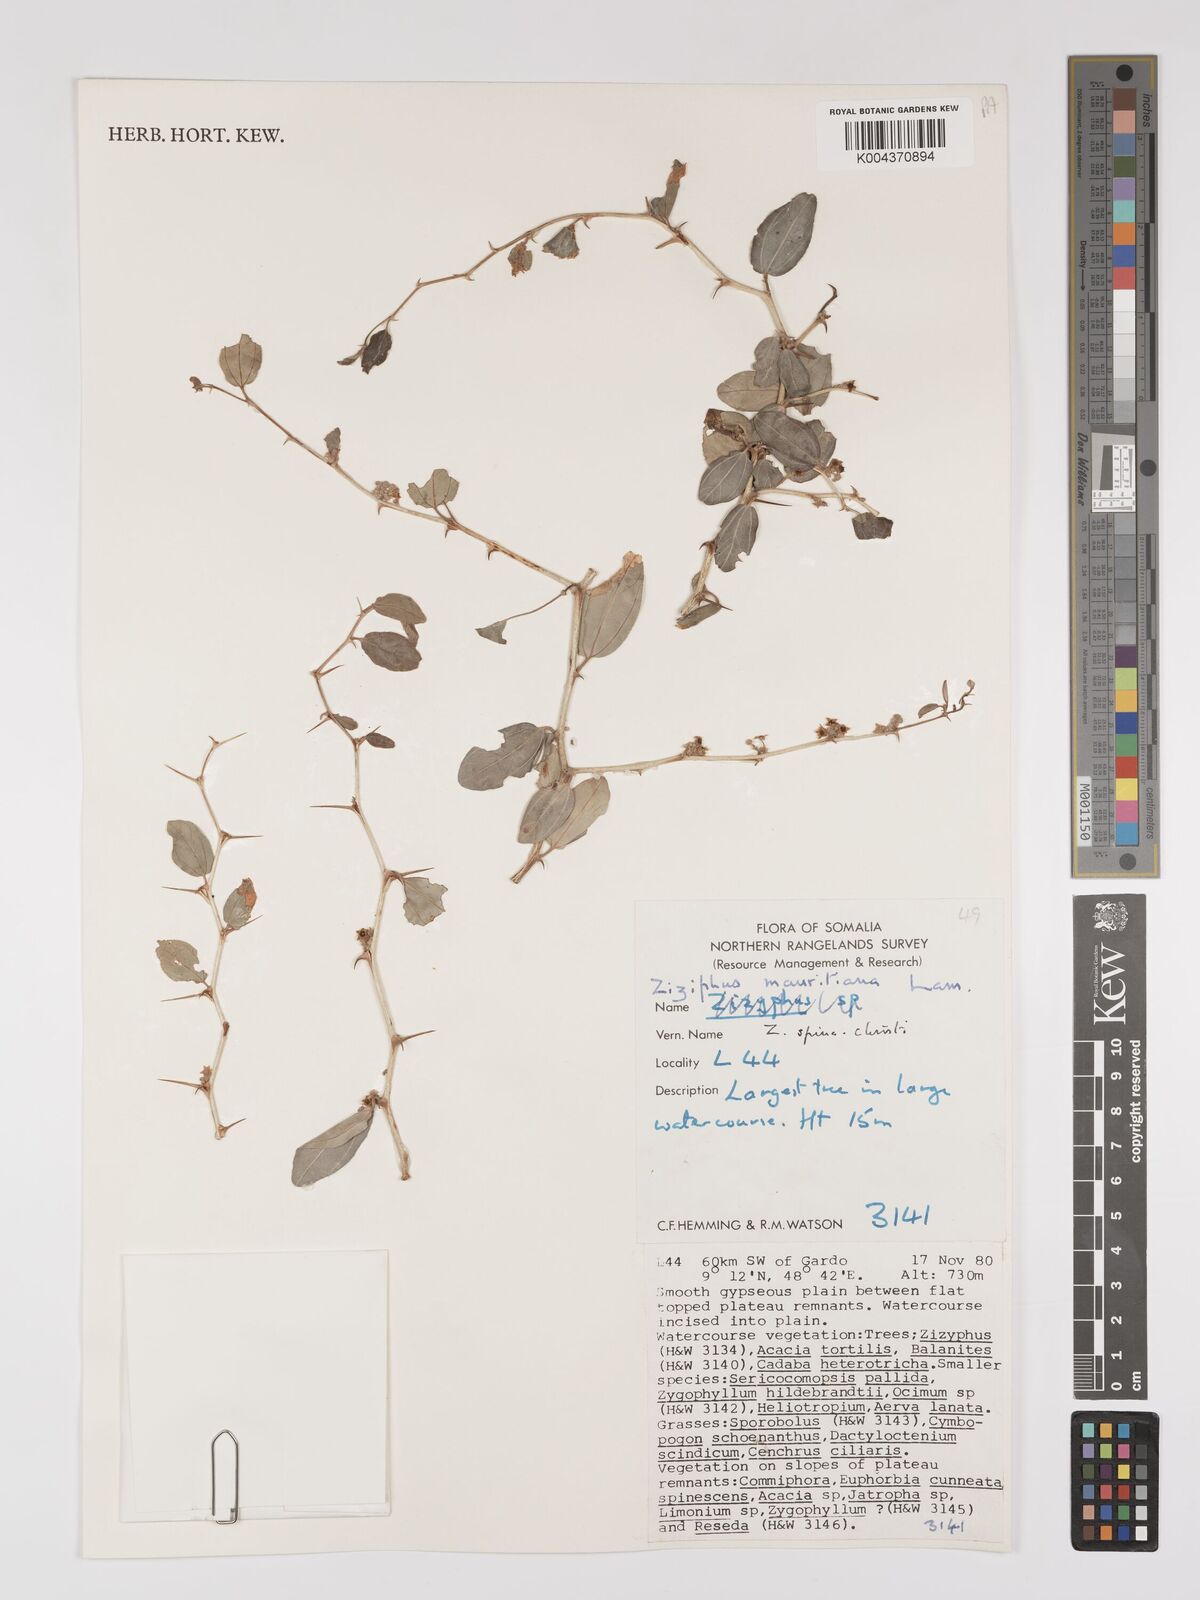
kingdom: Plantae
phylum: Tracheophyta
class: Magnoliopsida
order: Rosales
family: Rhamnaceae
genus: Ziziphus
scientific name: Ziziphus spina-christi
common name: Syrian christ-thorn
